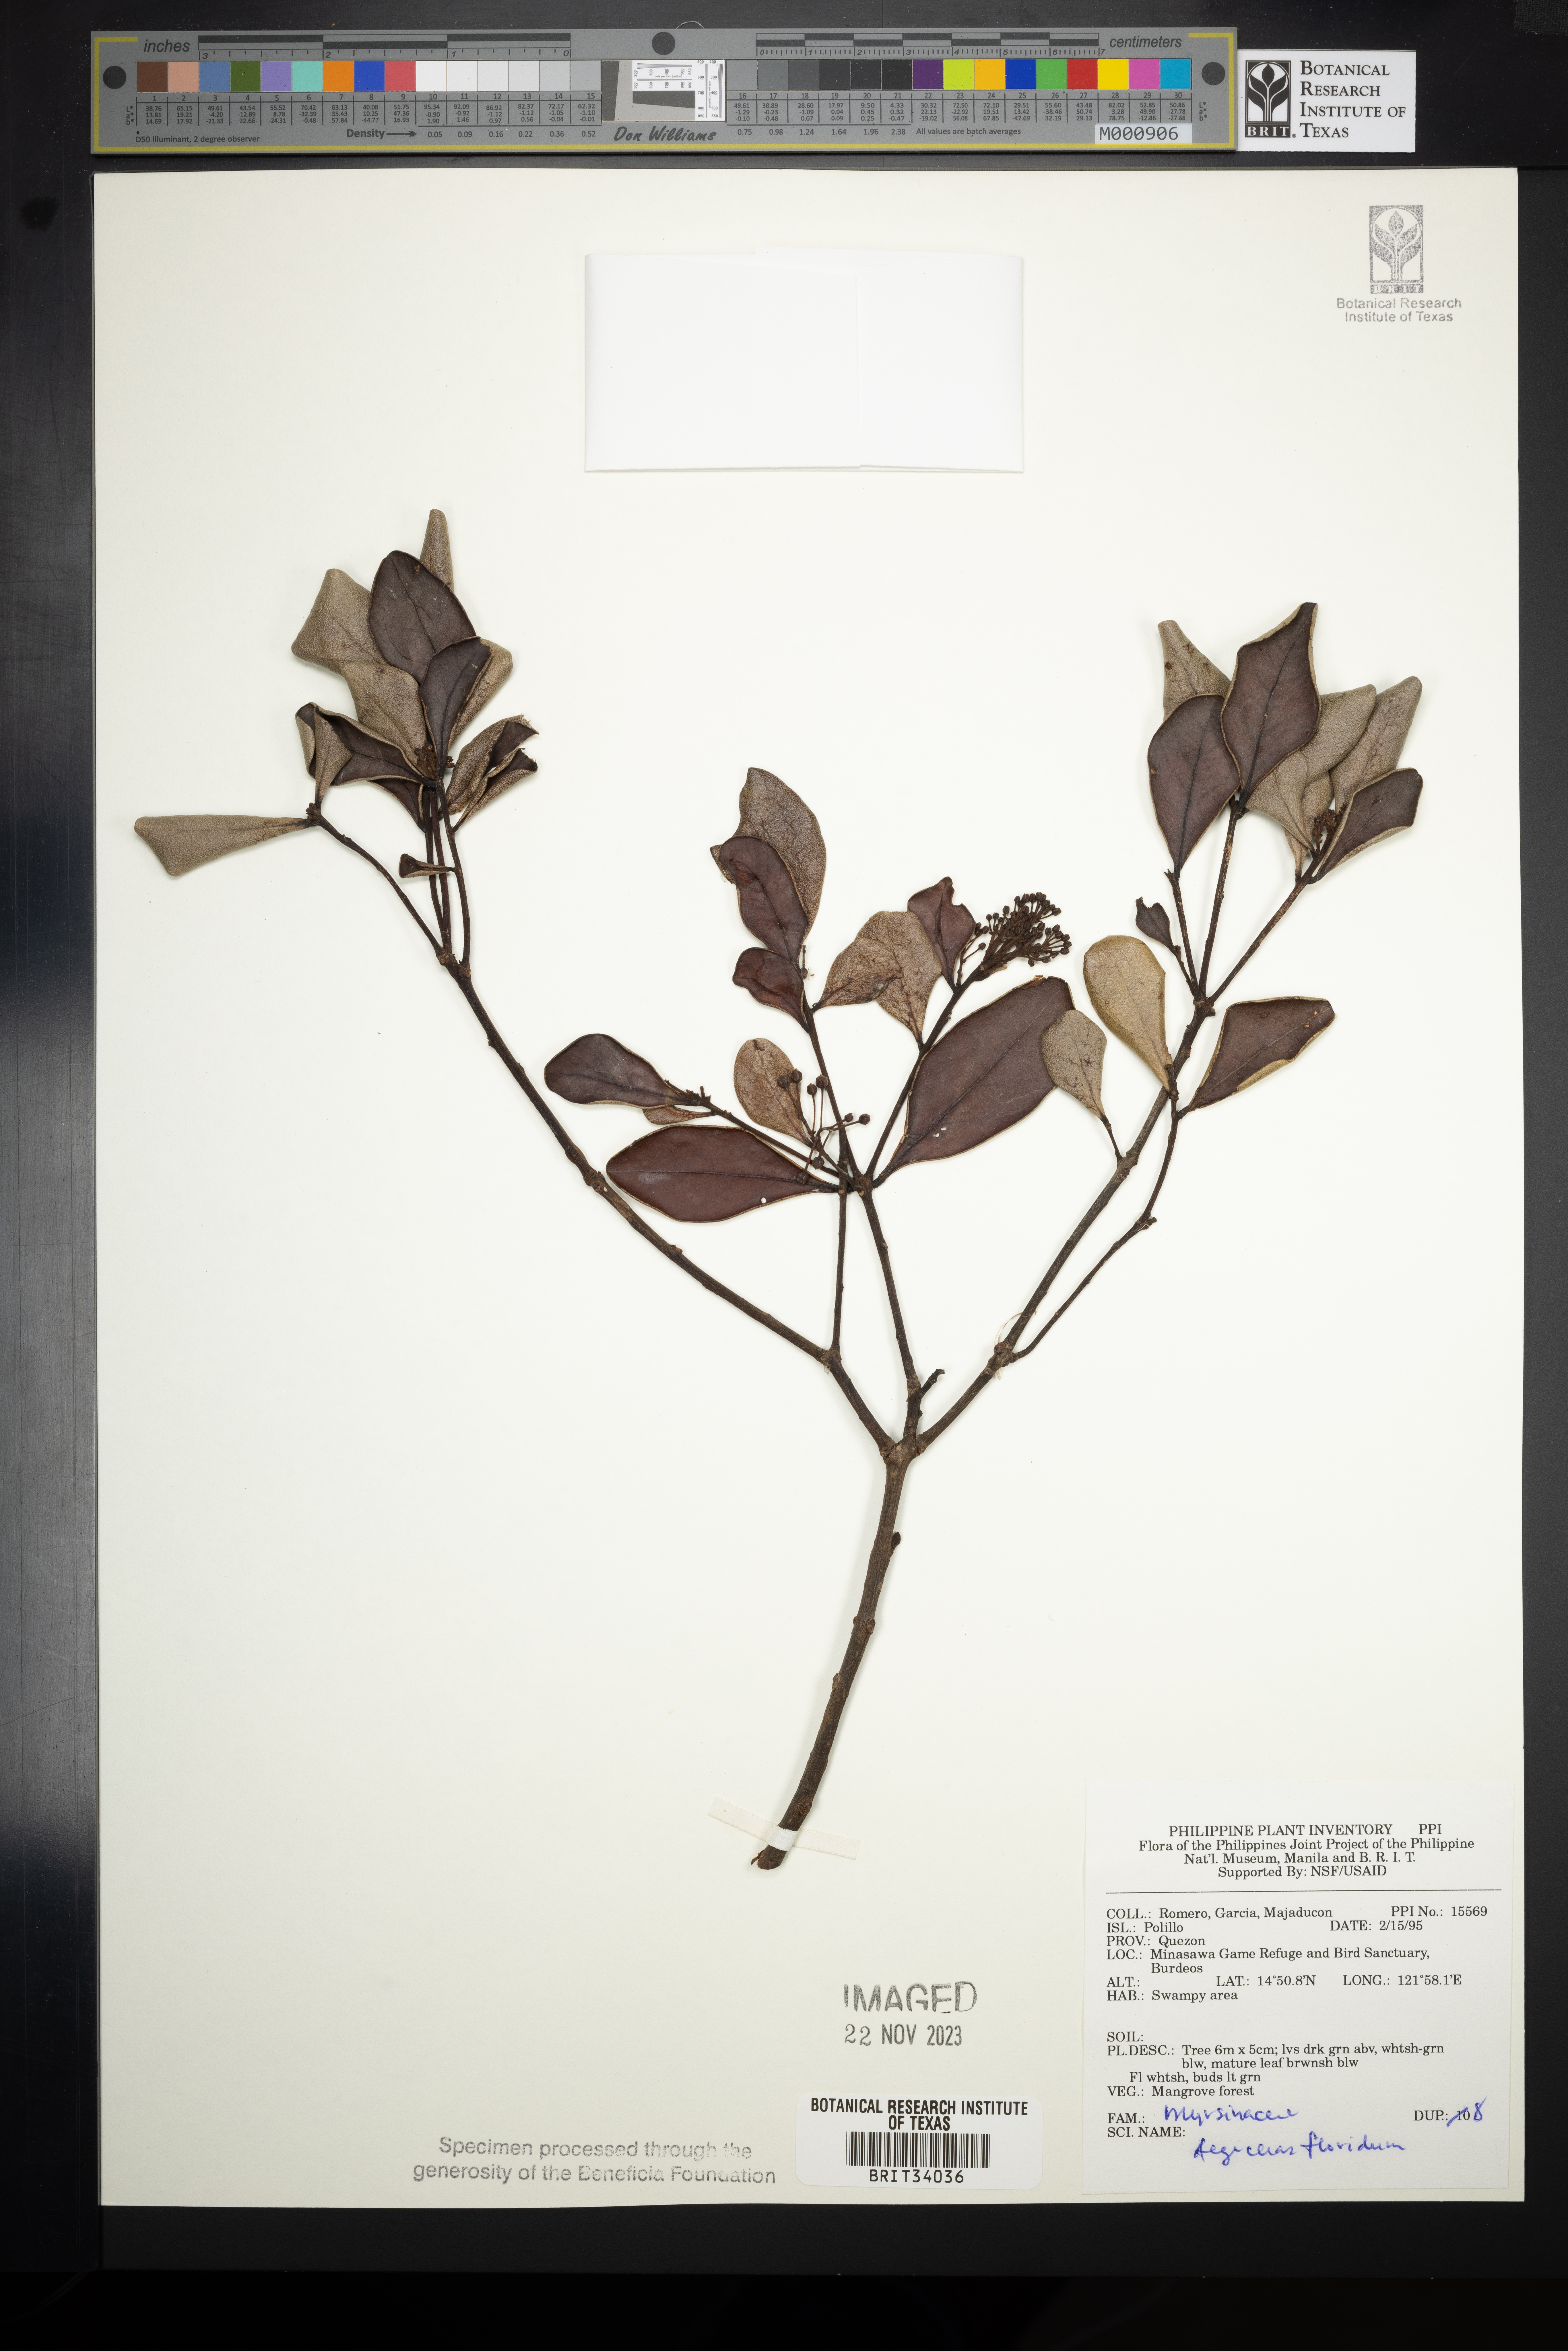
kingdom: Plantae
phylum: Tracheophyta
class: Magnoliopsida
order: Ericales
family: Primulaceae
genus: Aegiceras
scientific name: Aegiceras floridum
